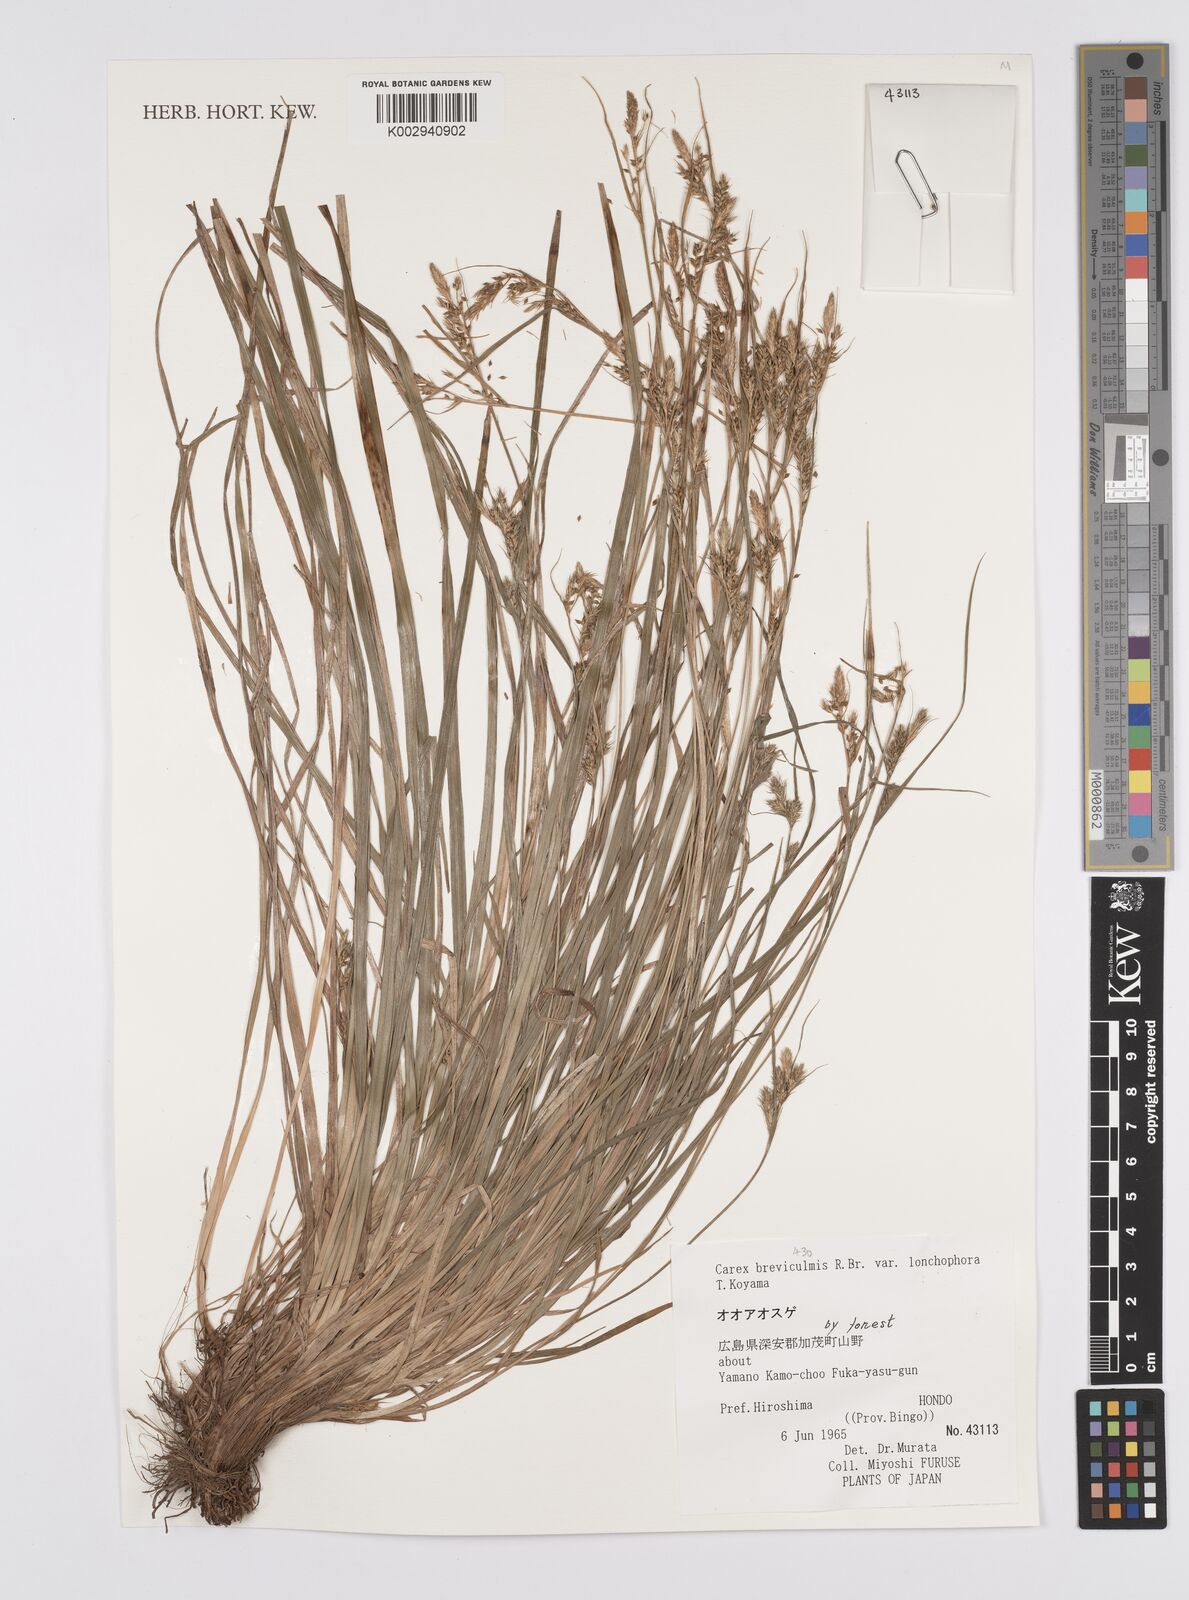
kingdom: Plantae
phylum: Tracheophyta
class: Liliopsida
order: Poales
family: Cyperaceae
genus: Carex
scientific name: Carex breviculmis
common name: Asian shortstem sedge
